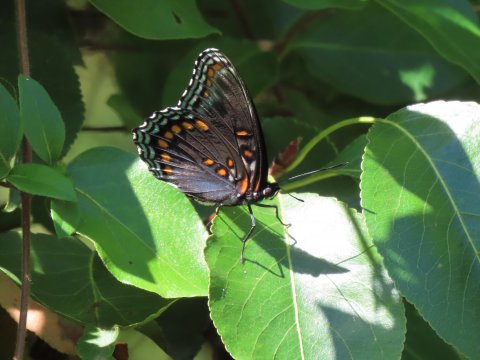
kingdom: Animalia
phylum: Arthropoda
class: Insecta
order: Lepidoptera
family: Nymphalidae
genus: Limenitis
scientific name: Limenitis arthemis
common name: Red-spotted Admiral
